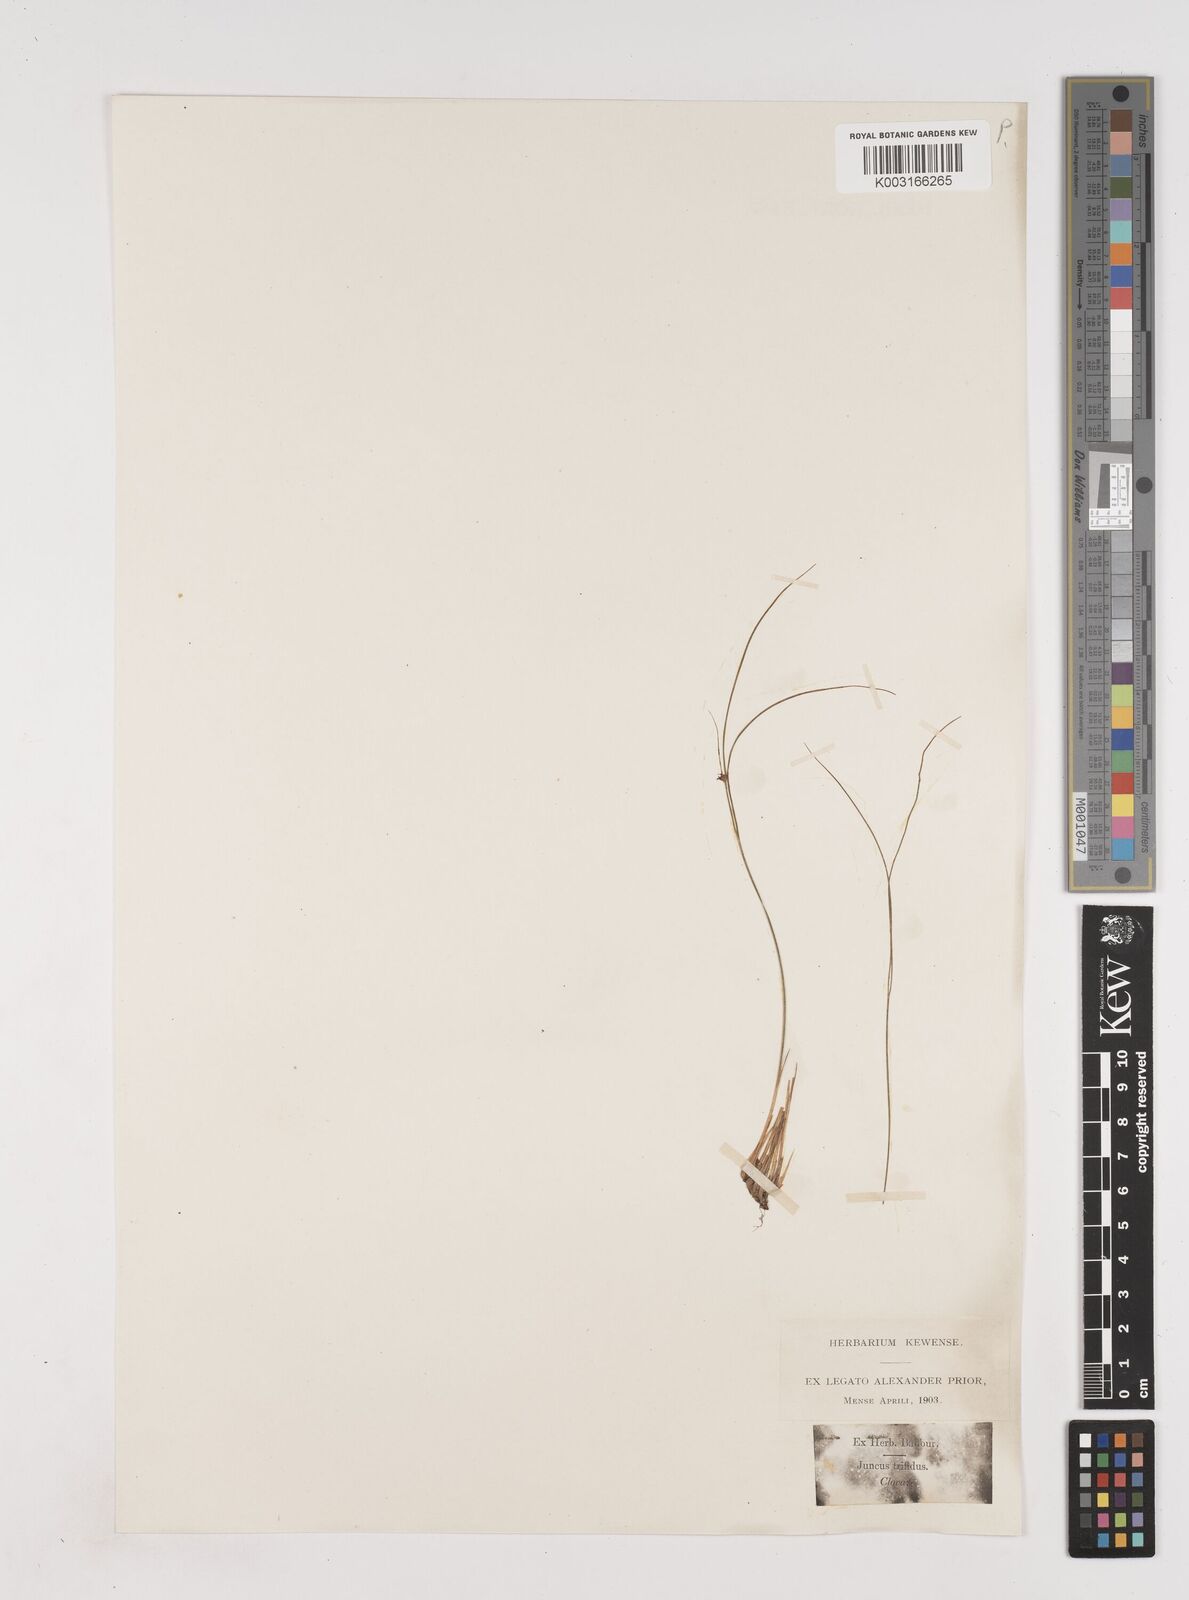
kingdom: Plantae
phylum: Tracheophyta
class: Liliopsida
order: Poales
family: Juncaceae
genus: Oreojuncus
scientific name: Oreojuncus trifidus
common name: Highland rush
